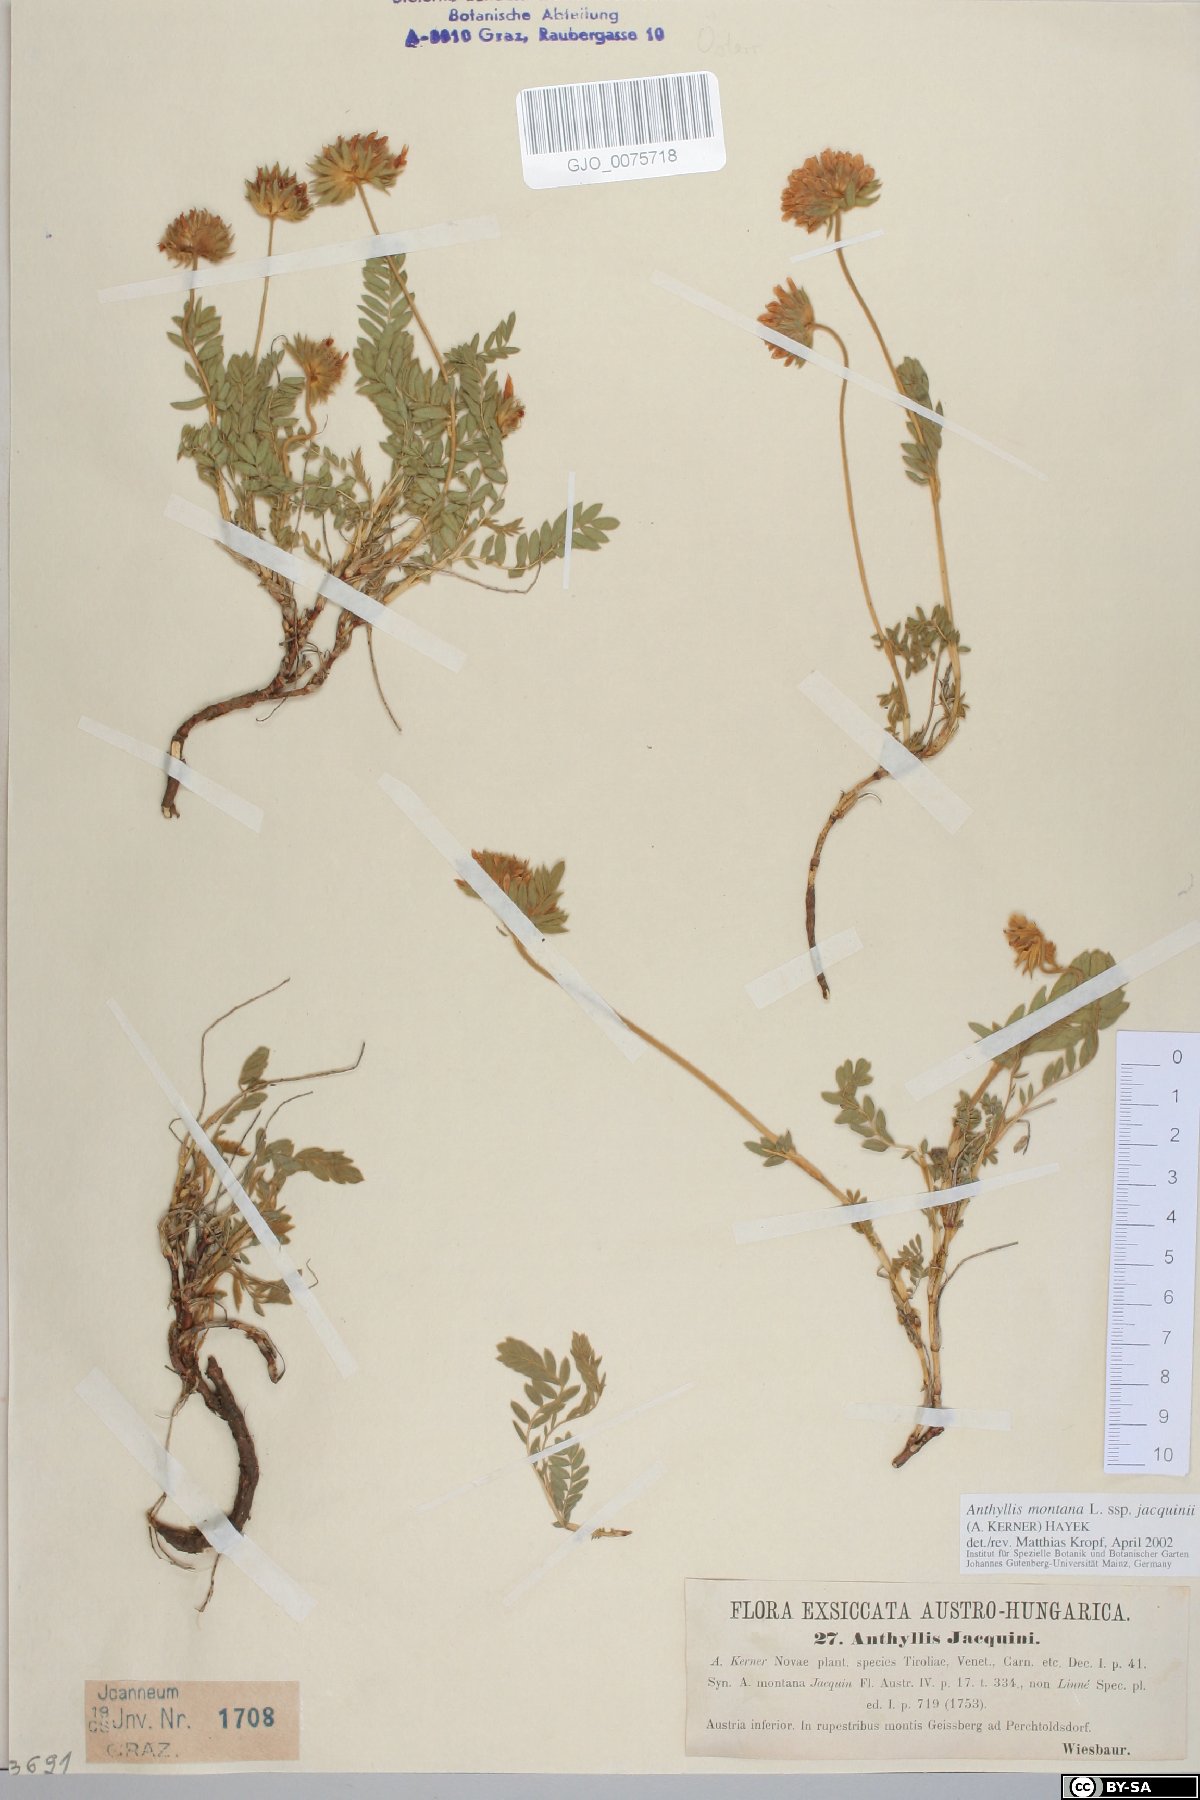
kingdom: Plantae
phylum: Tracheophyta
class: Magnoliopsida
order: Fabales
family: Fabaceae
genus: Anthyllis
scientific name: Anthyllis montana
